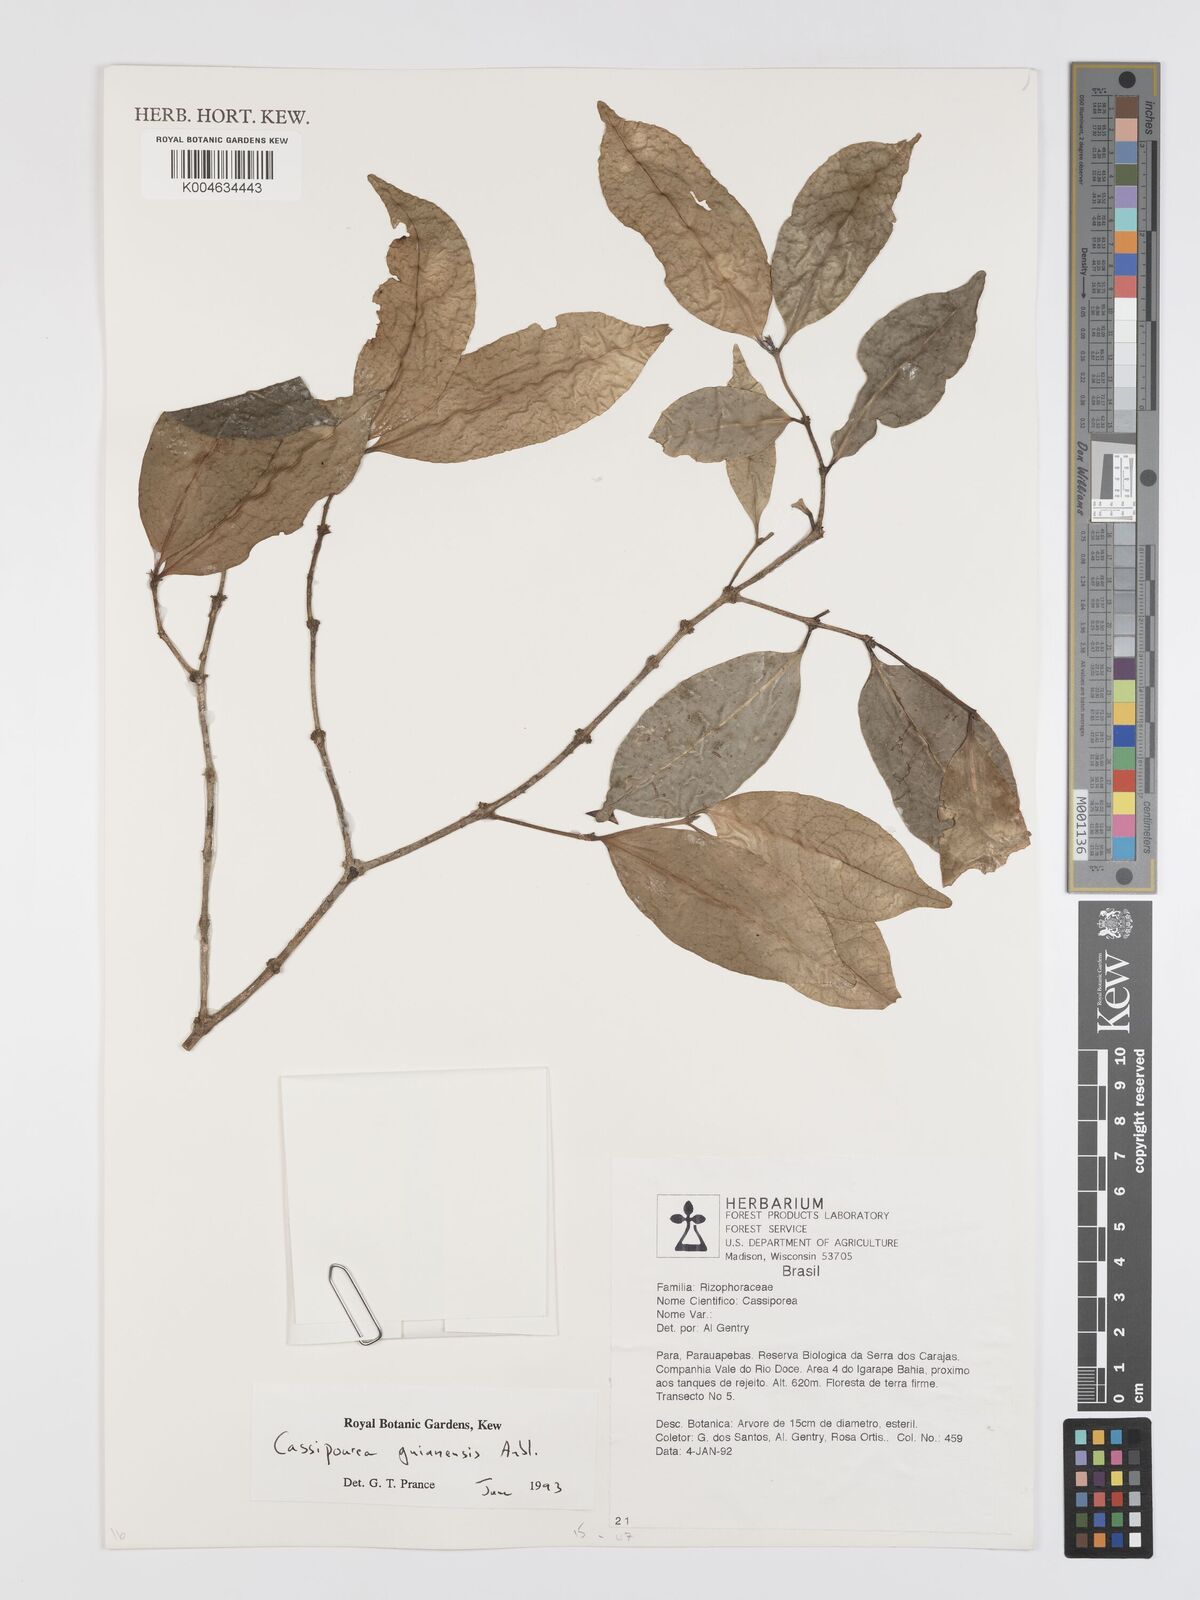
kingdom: Plantae
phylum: Tracheophyta
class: Magnoliopsida
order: Malpighiales
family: Rhizophoraceae
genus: Cassipourea
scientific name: Cassipourea guianensis
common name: Bastard waterwood
